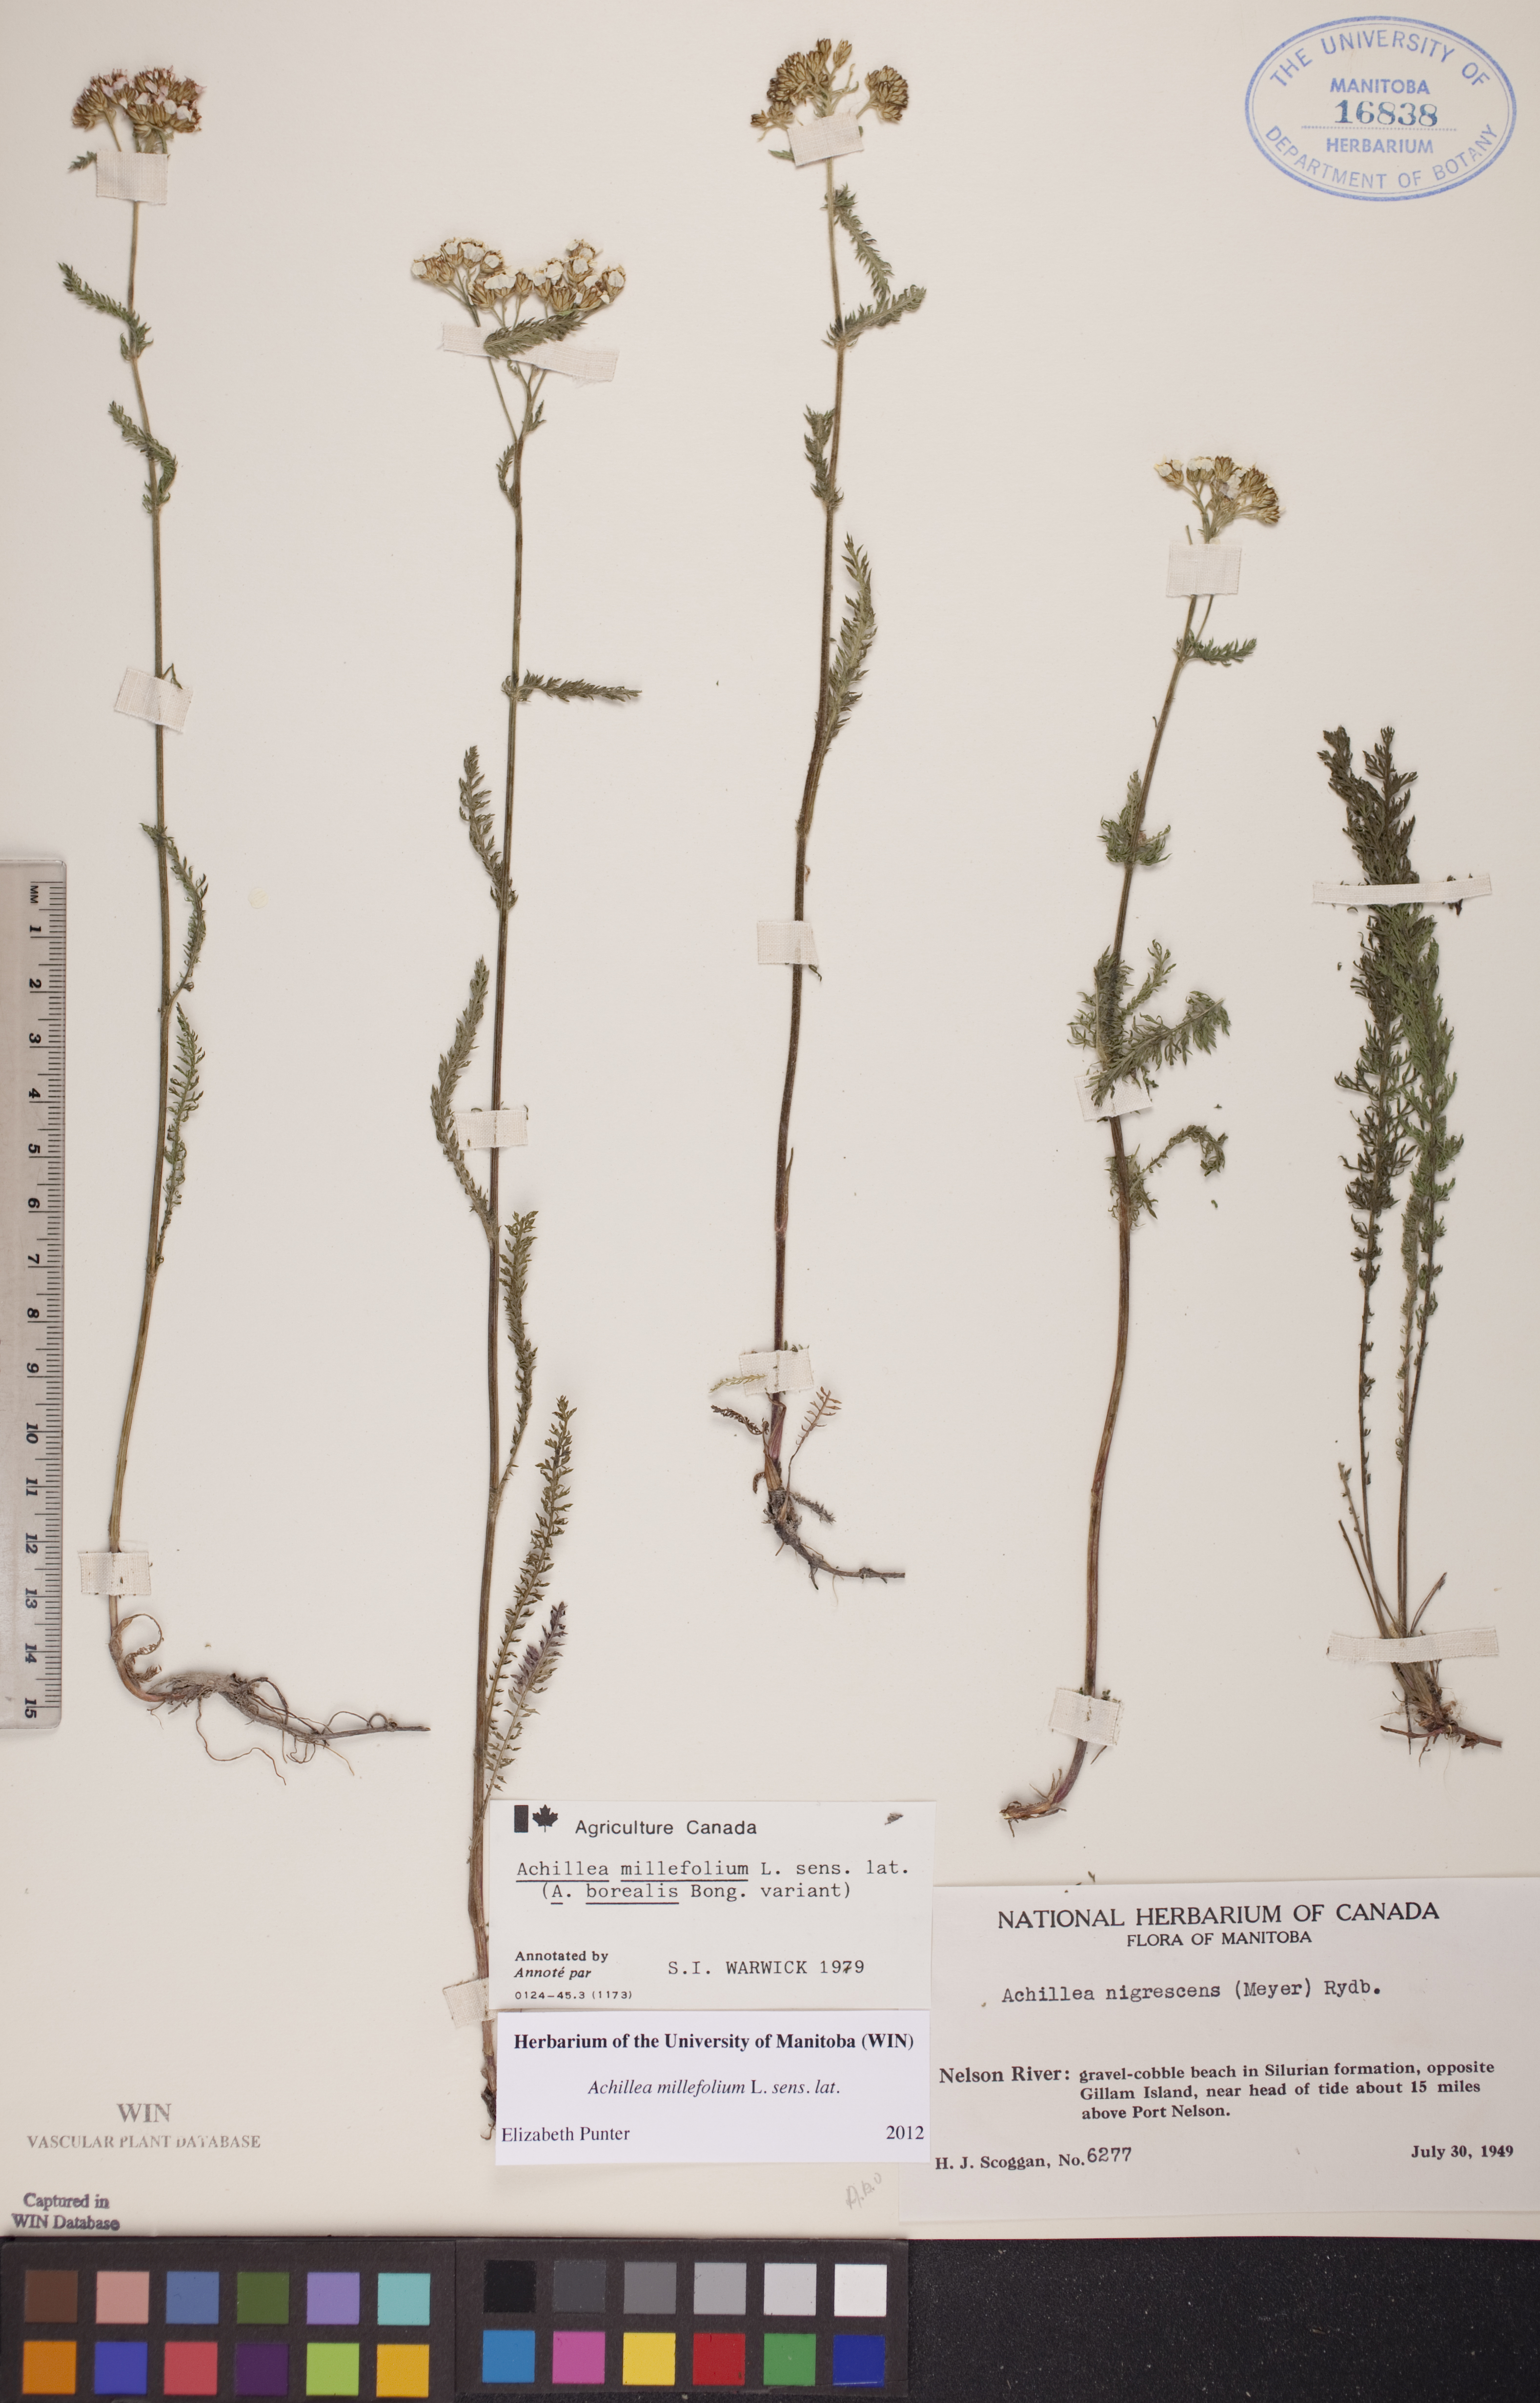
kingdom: Plantae
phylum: Tracheophyta
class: Magnoliopsida
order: Asterales
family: Asteraceae
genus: Achillea
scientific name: Achillea millefolium
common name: Yarrow
